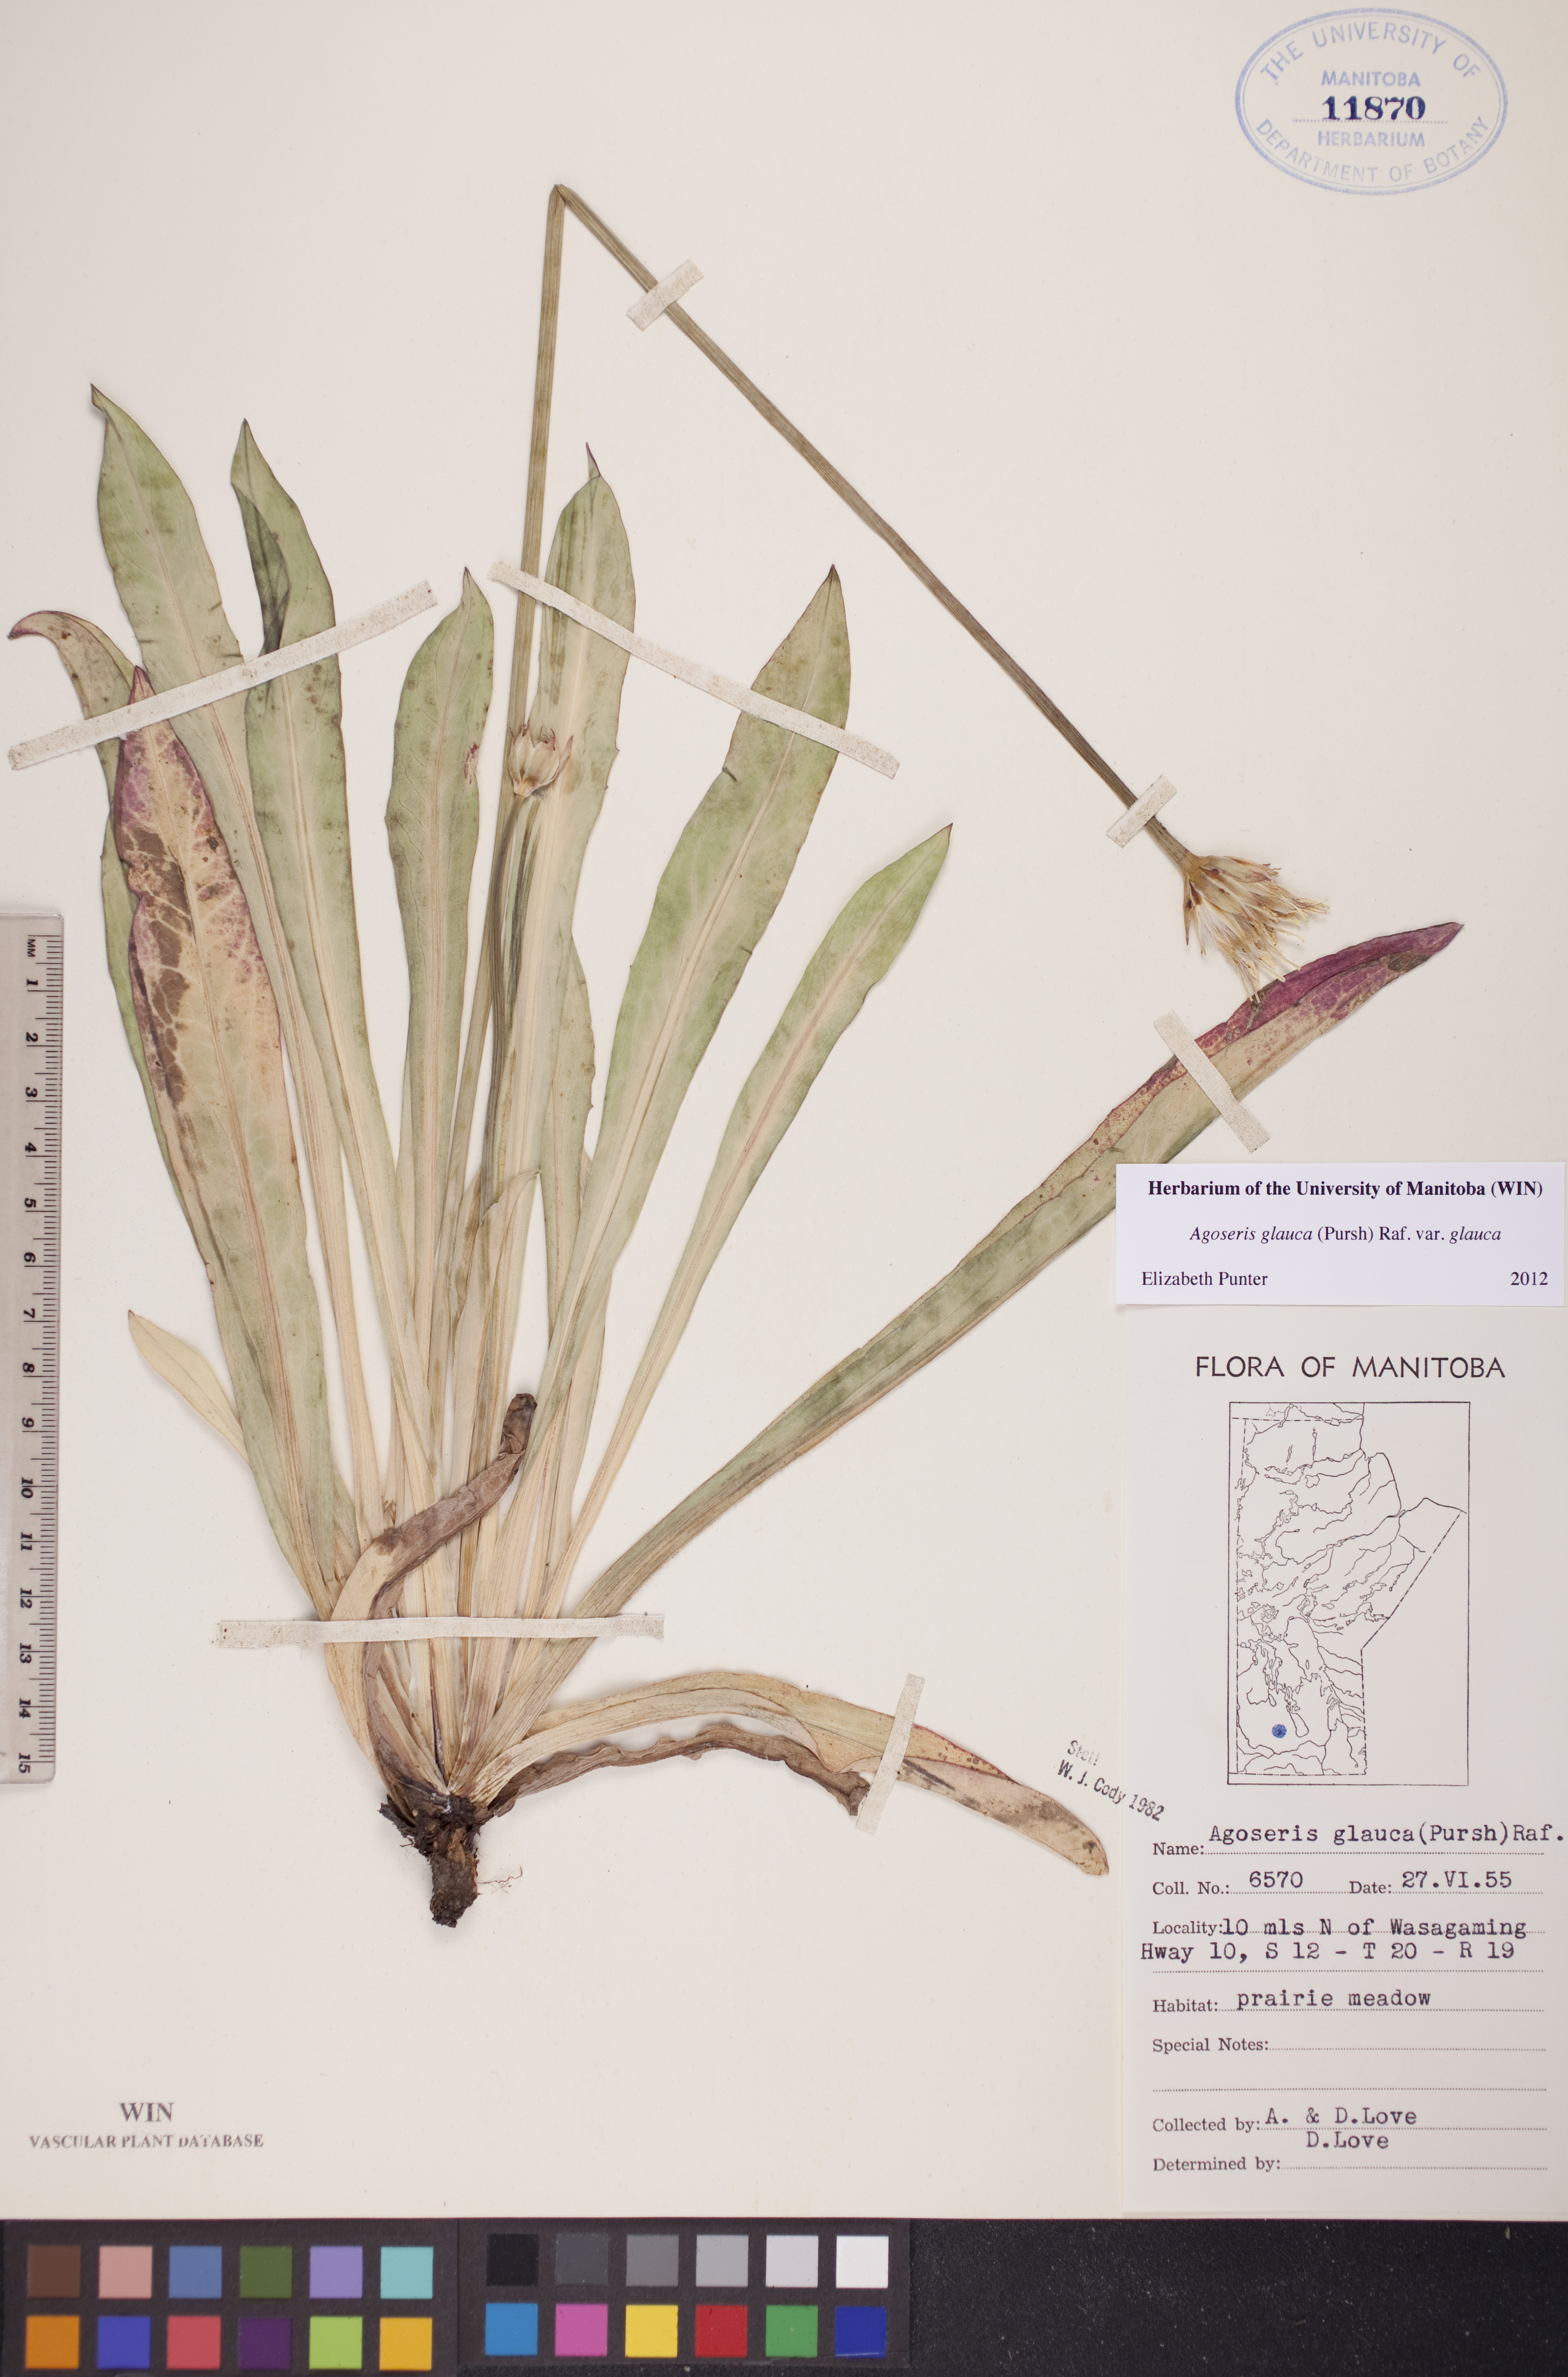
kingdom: Plantae
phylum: Tracheophyta
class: Magnoliopsida
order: Asterales
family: Asteraceae
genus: Agoseris
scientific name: Agoseris glauca
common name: Prairie agoseris
